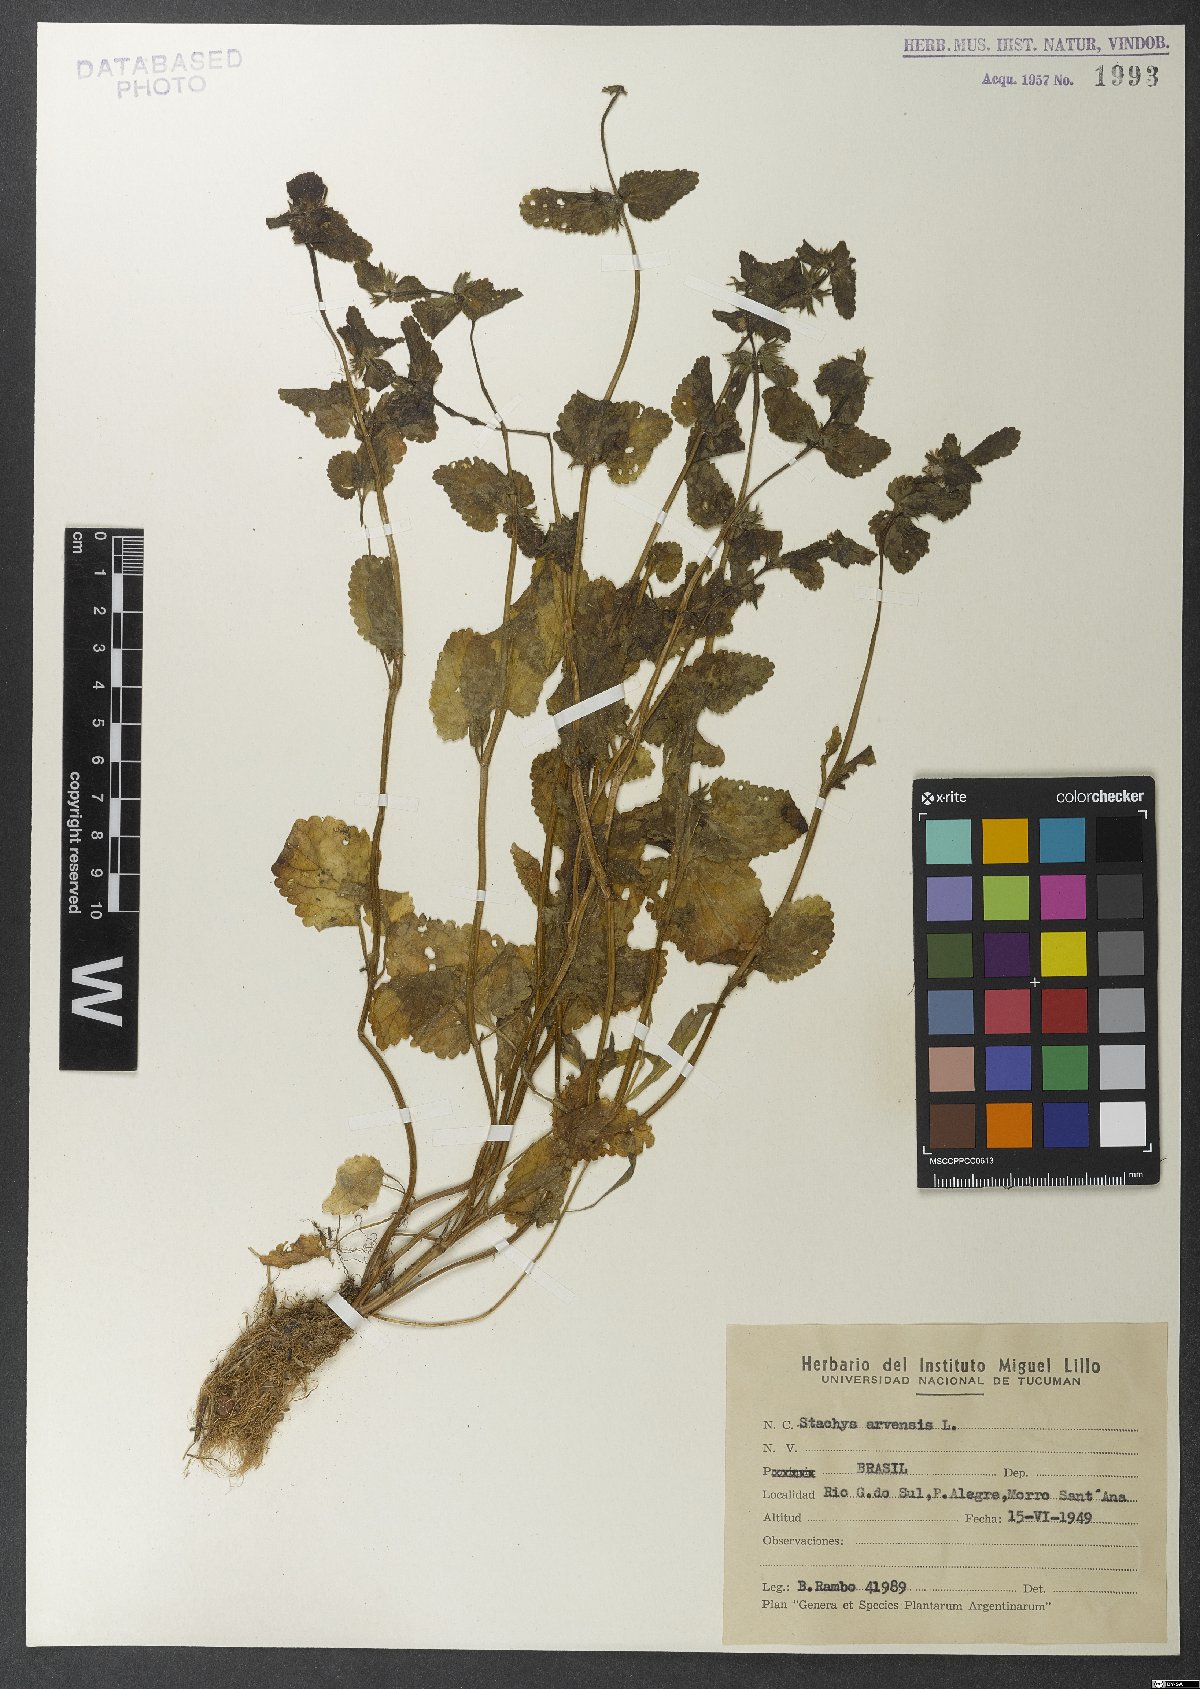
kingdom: Plantae
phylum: Tracheophyta
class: Magnoliopsida
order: Lamiales
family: Lamiaceae
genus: Stachys
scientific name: Stachys arvensis
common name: Field woundwort
